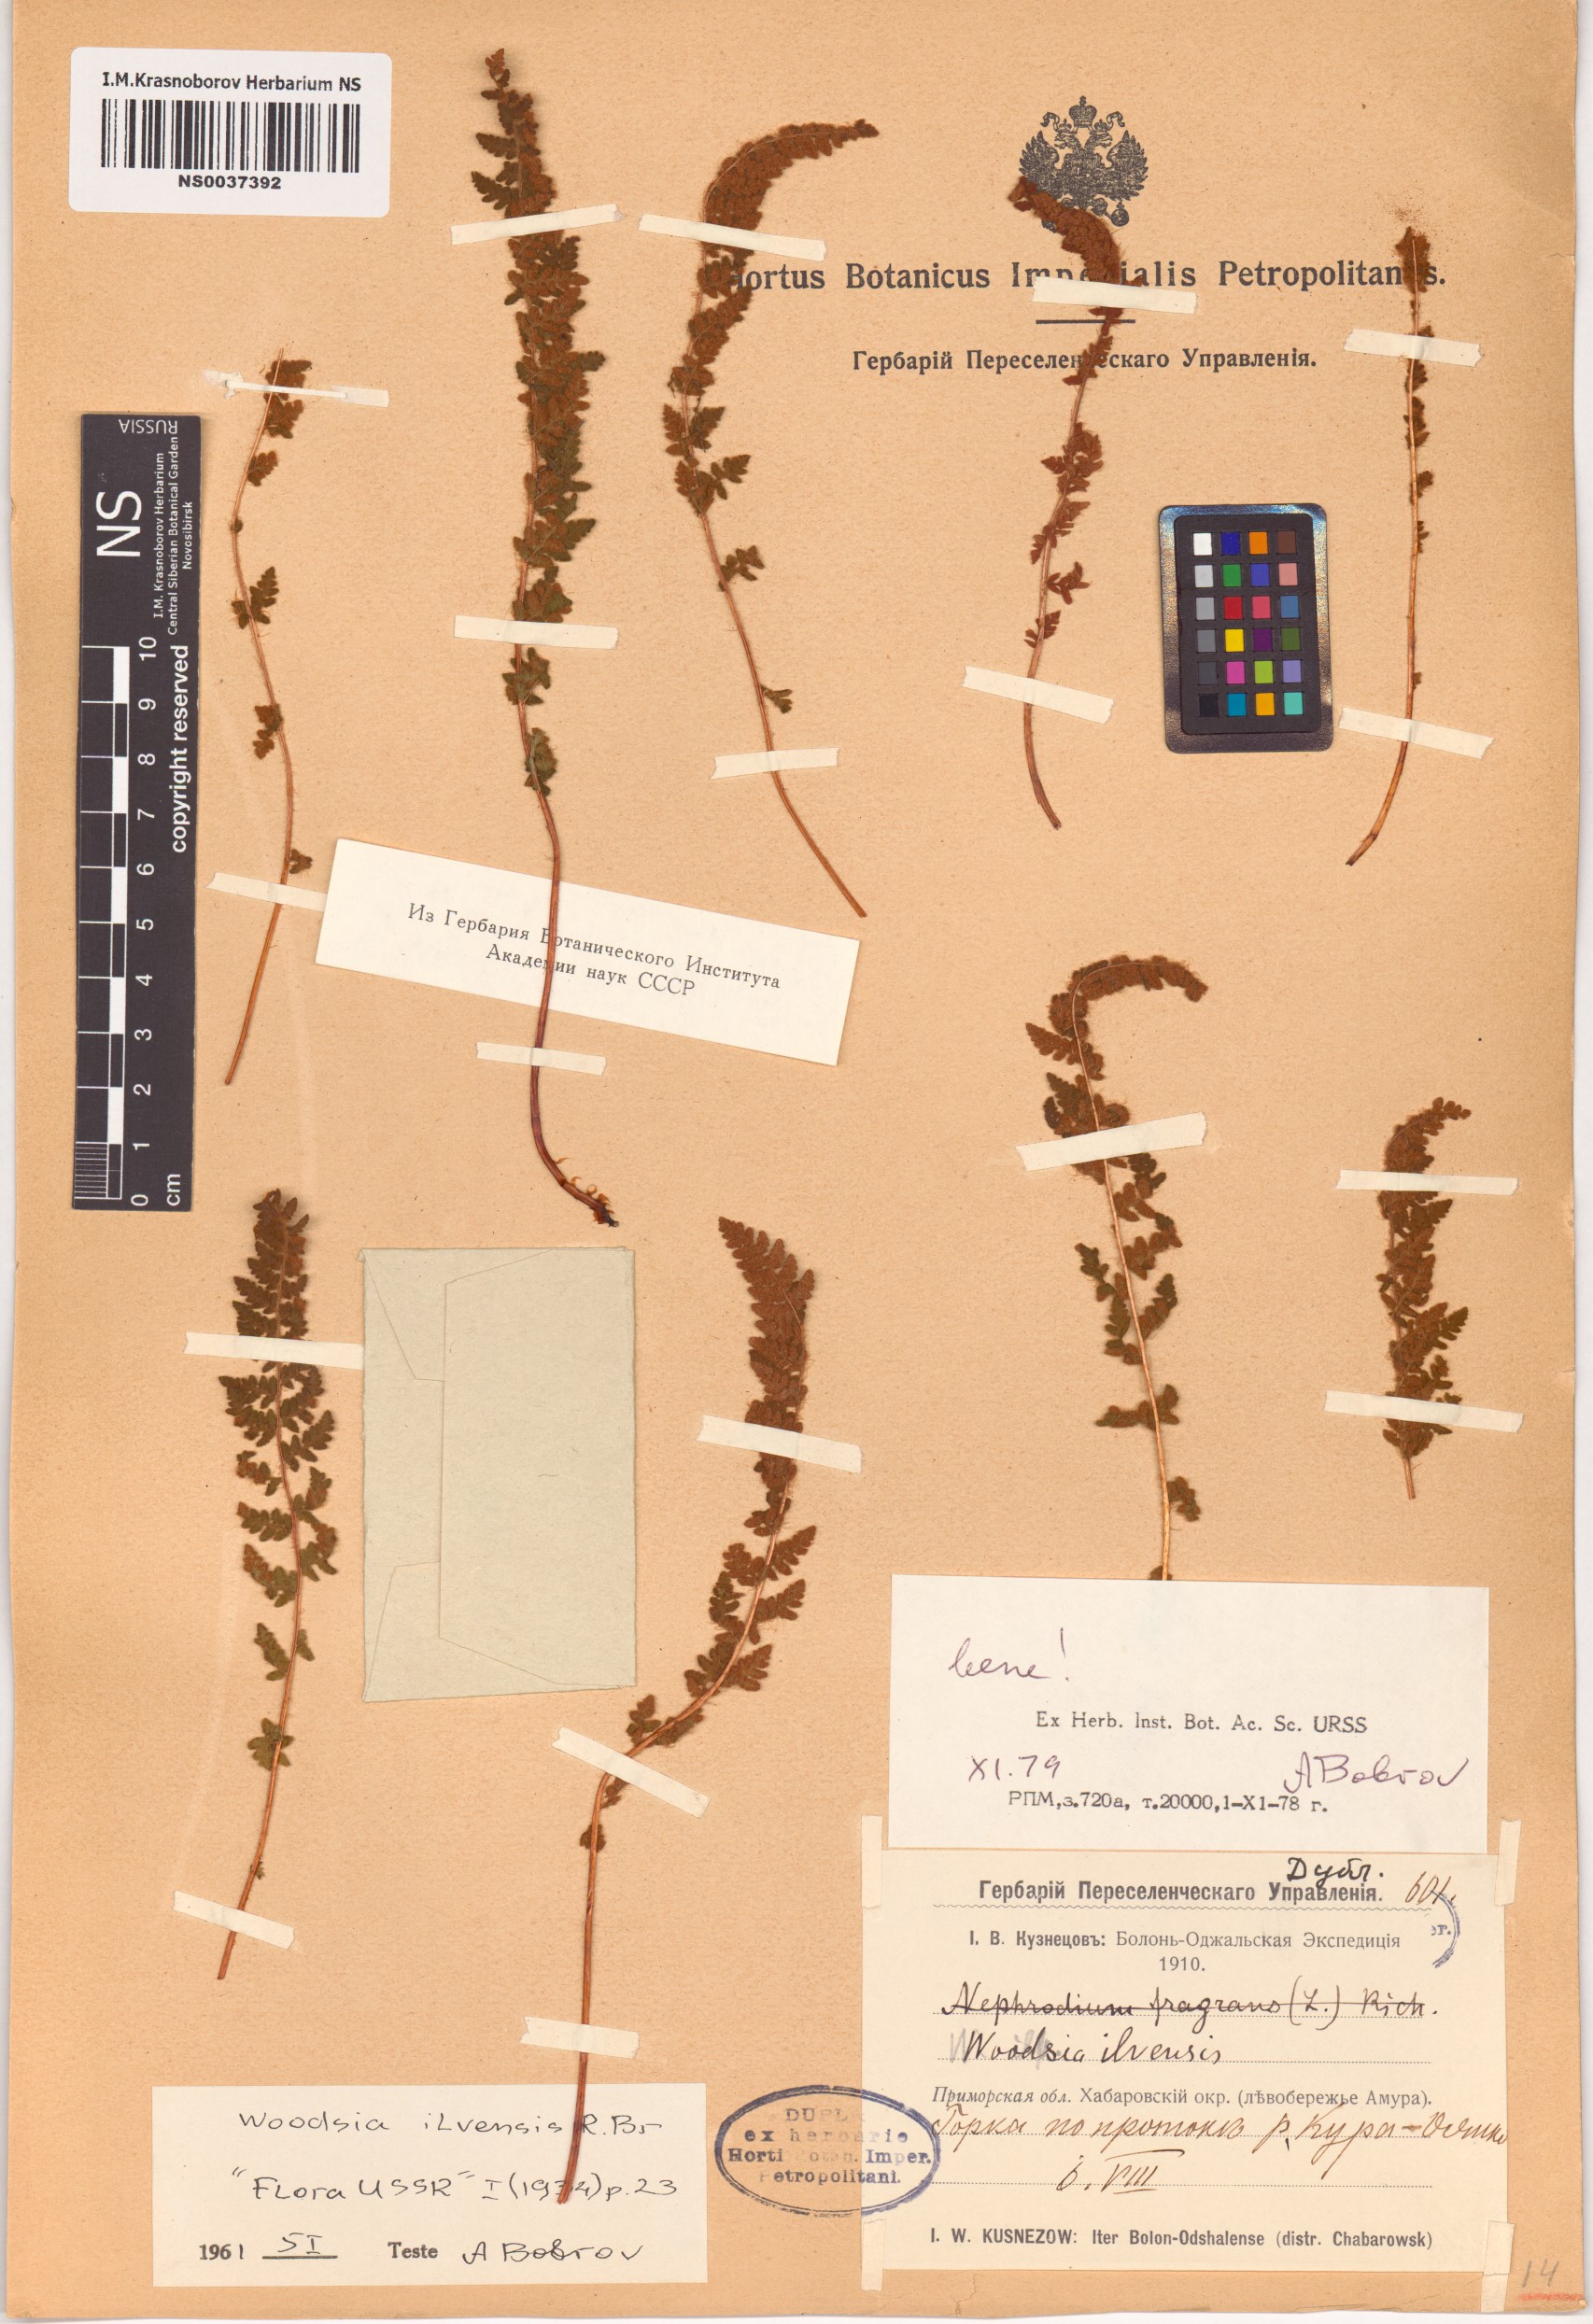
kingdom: Plantae
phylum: Tracheophyta
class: Polypodiopsida
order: Polypodiales
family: Woodsiaceae
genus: Woodsia
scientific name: Woodsia ilvensis
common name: Fragrant woodsia
